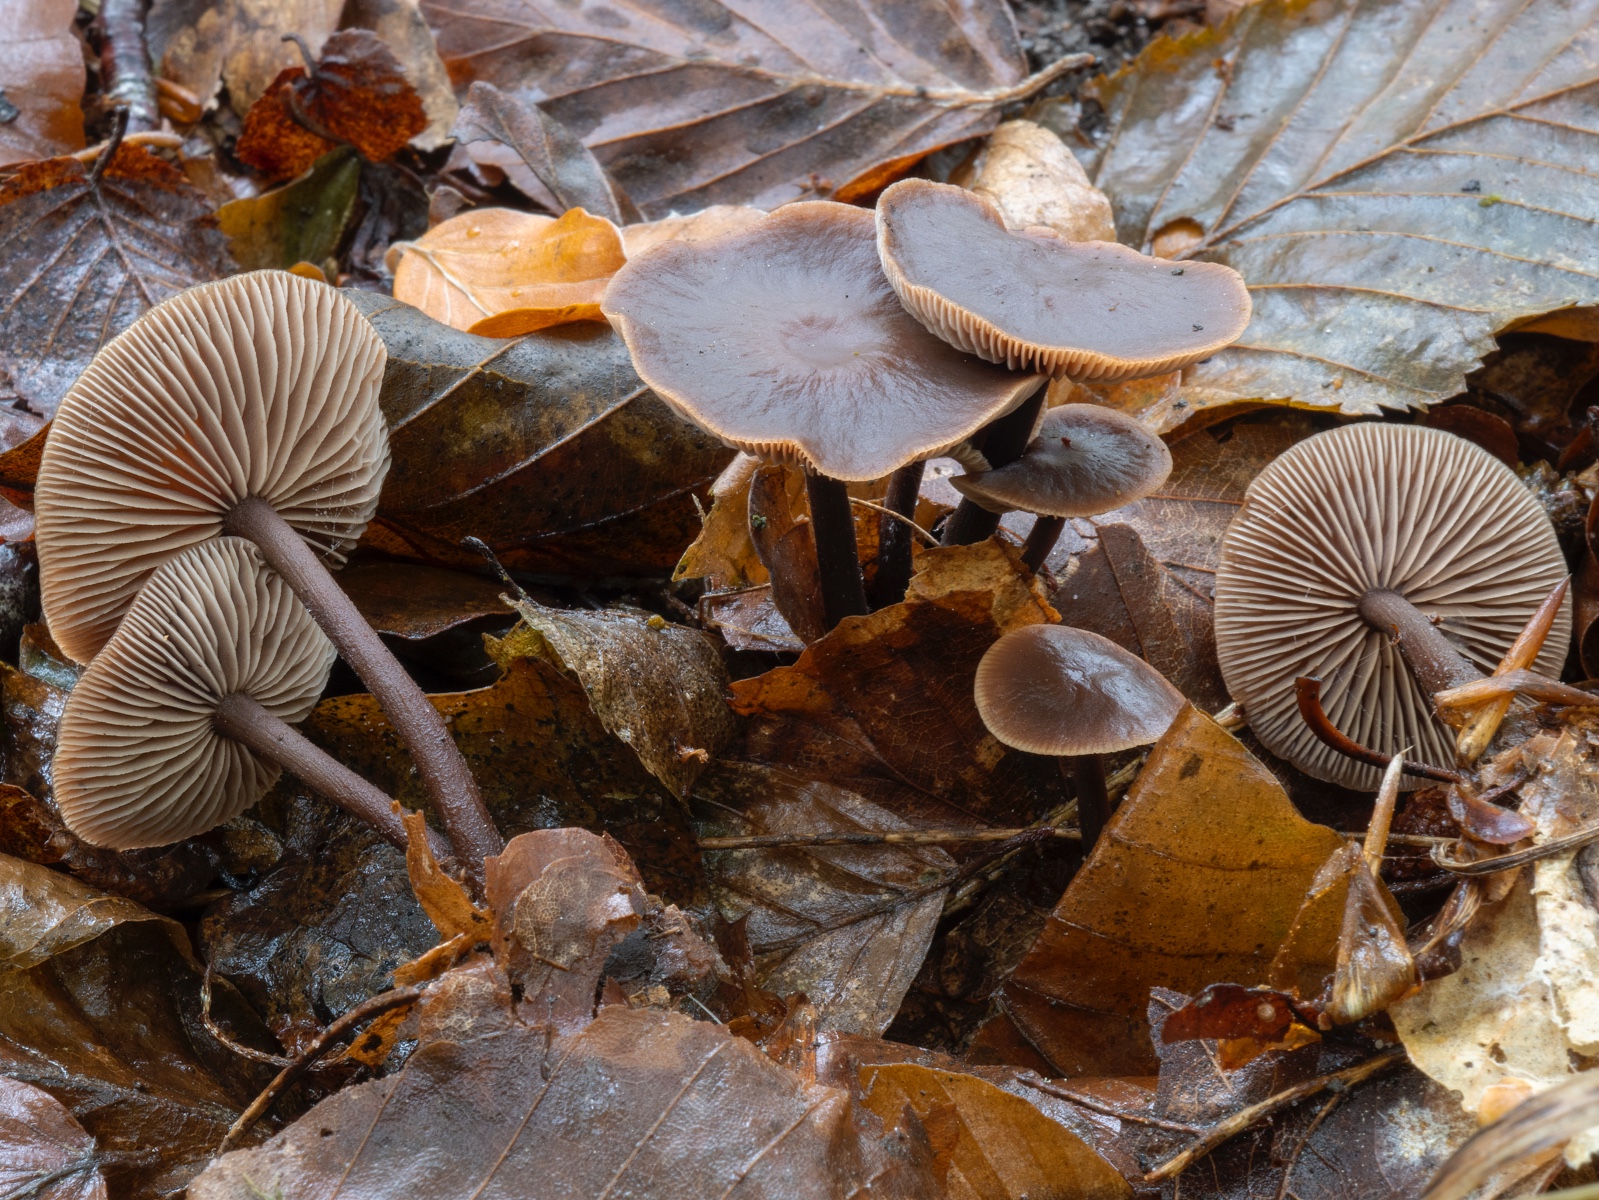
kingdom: Fungi
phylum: Basidiomycota
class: Agaricomycetes
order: Agaricales
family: Omphalotaceae
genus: Gymnopus
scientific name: Gymnopus fuscopurpureus
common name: purpurbrun fladhat
